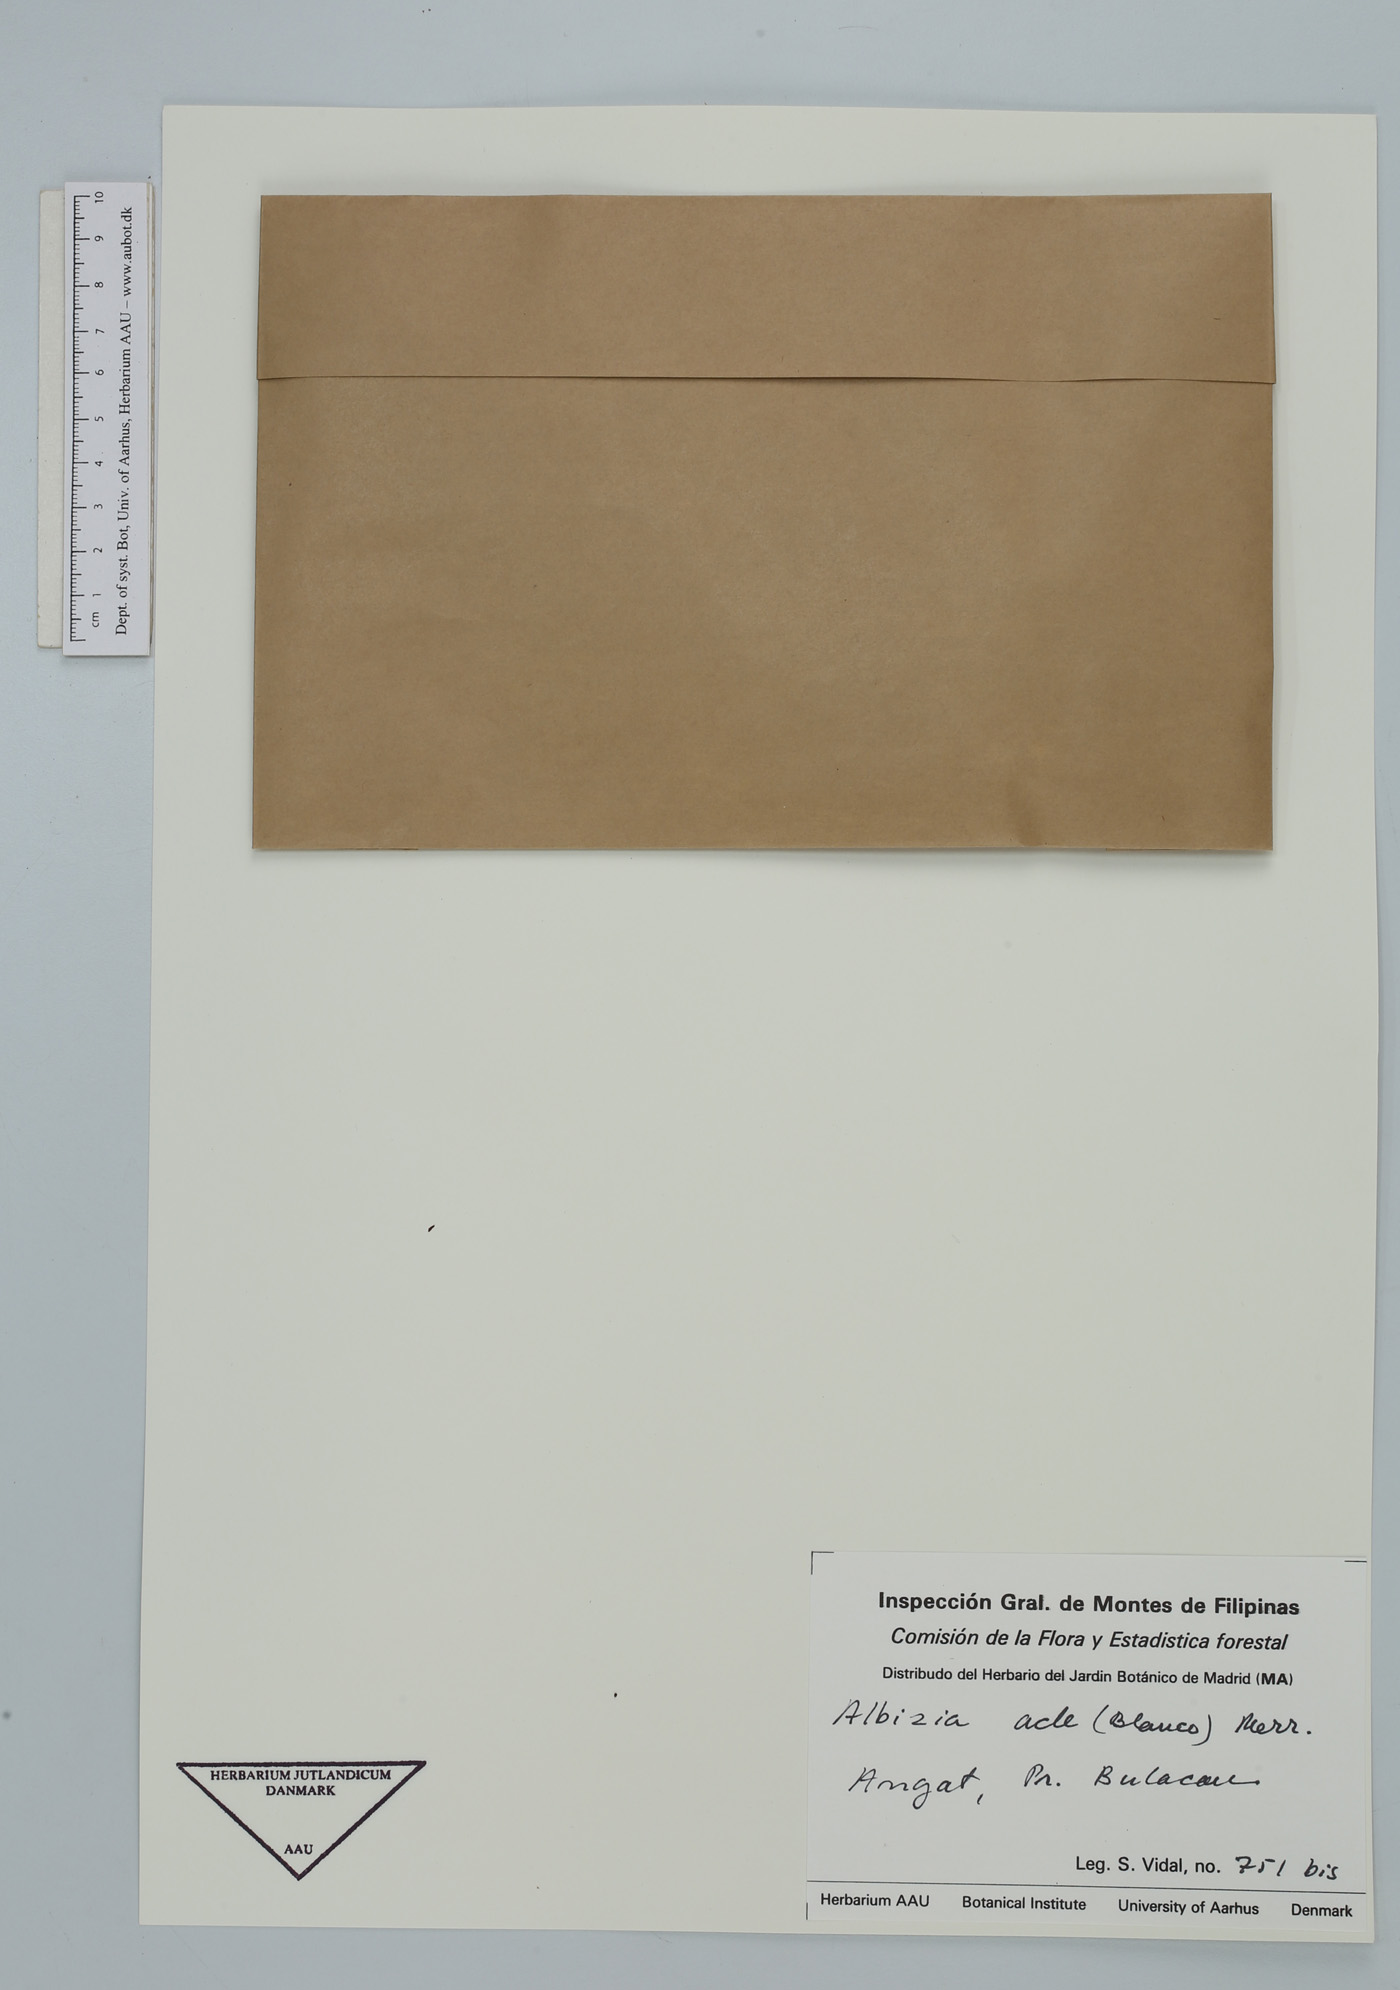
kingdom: Plantae
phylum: Tracheophyta
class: Magnoliopsida
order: Fabales
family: Fabaceae
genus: Albizia
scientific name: Albizia acle
